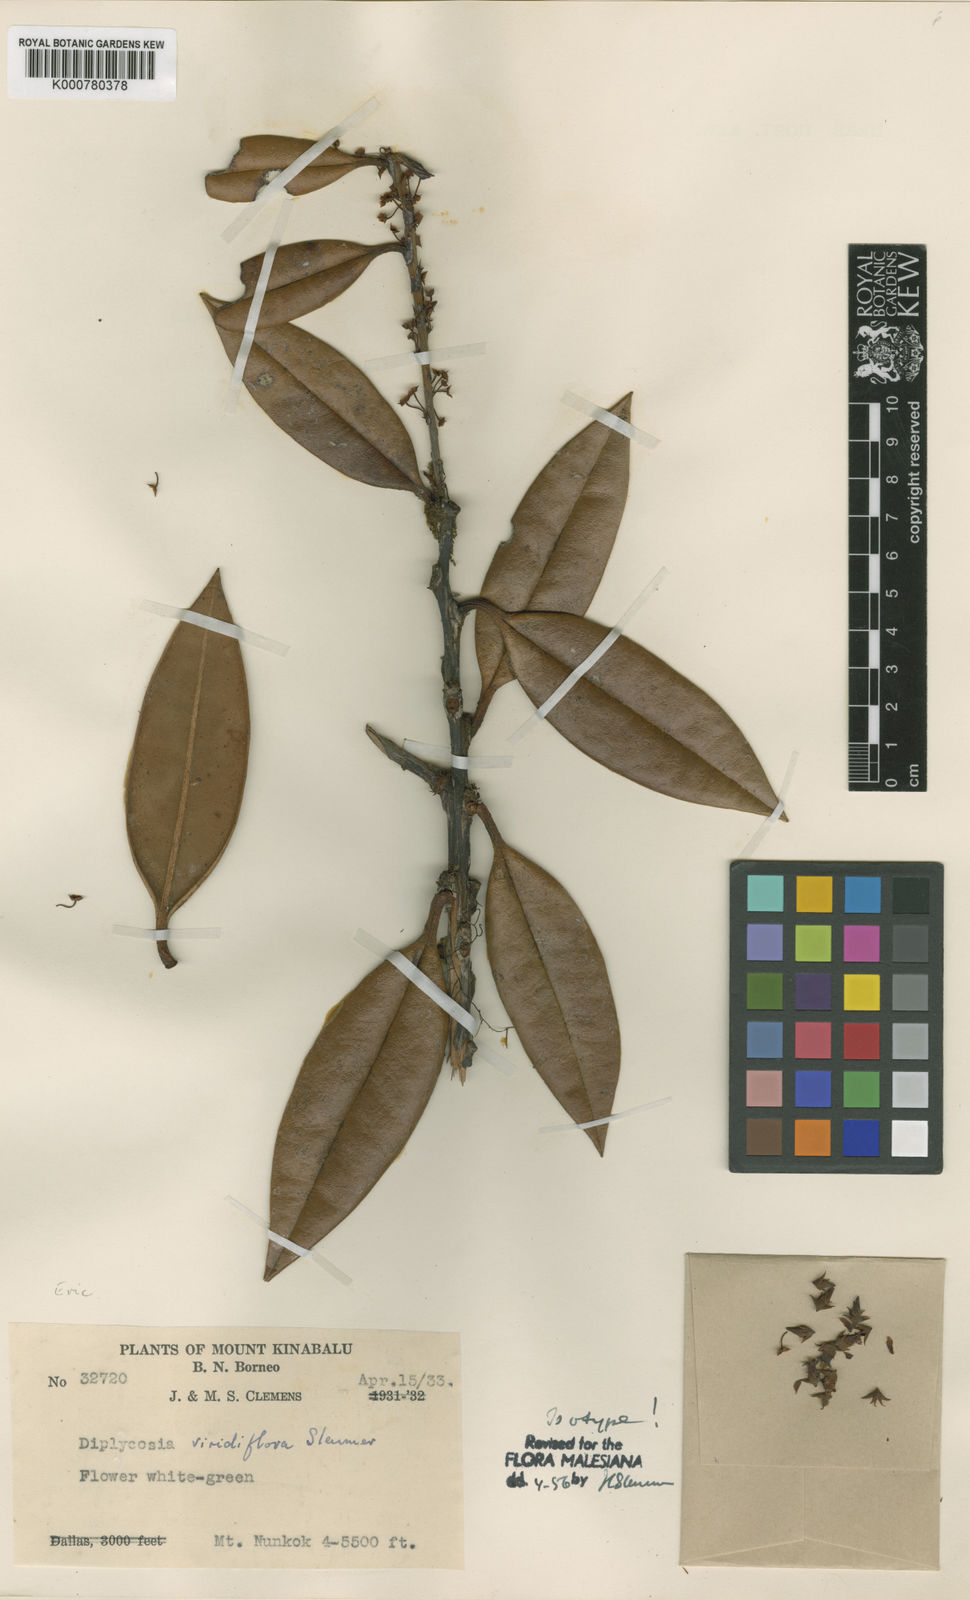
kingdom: Plantae
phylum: Tracheophyta
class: Magnoliopsida
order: Ericales
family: Ericaceae
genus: Gaultheria
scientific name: Gaultheria sulcinervia
